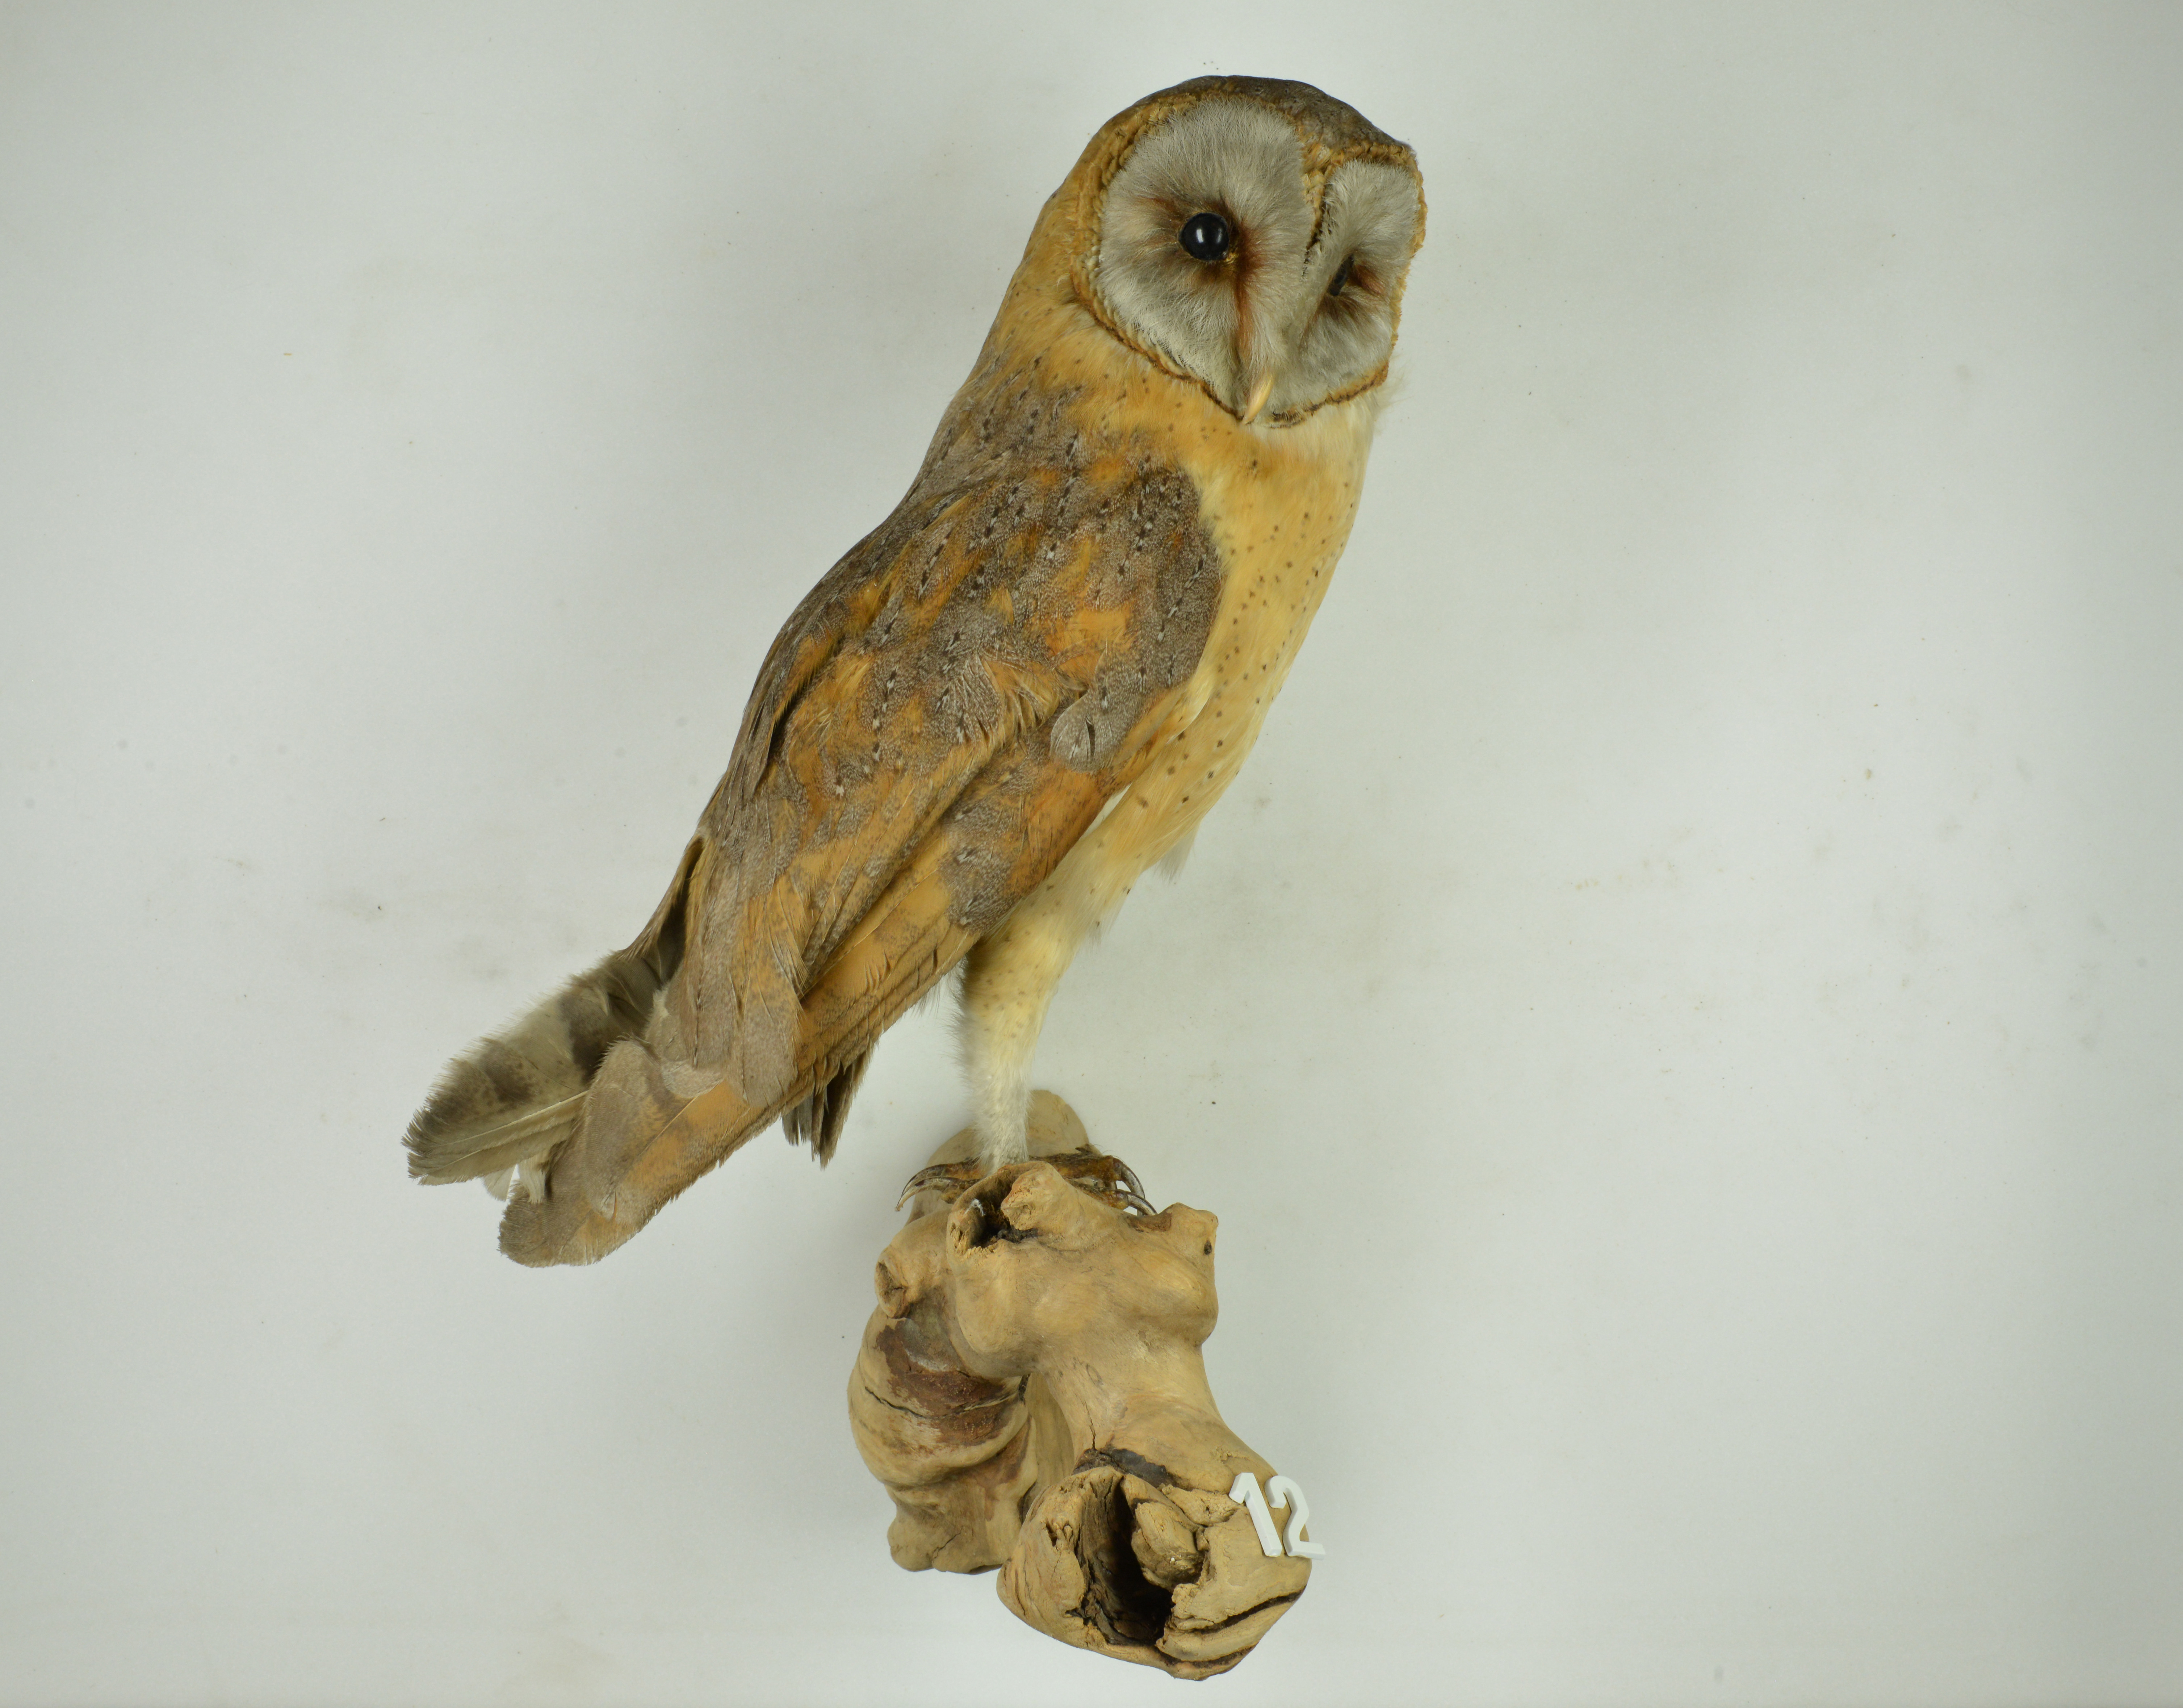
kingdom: Animalia
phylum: Chordata
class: Aves
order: Strigiformes
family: Tytonidae
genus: Tyto
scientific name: Tyto alba
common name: Barn owl
